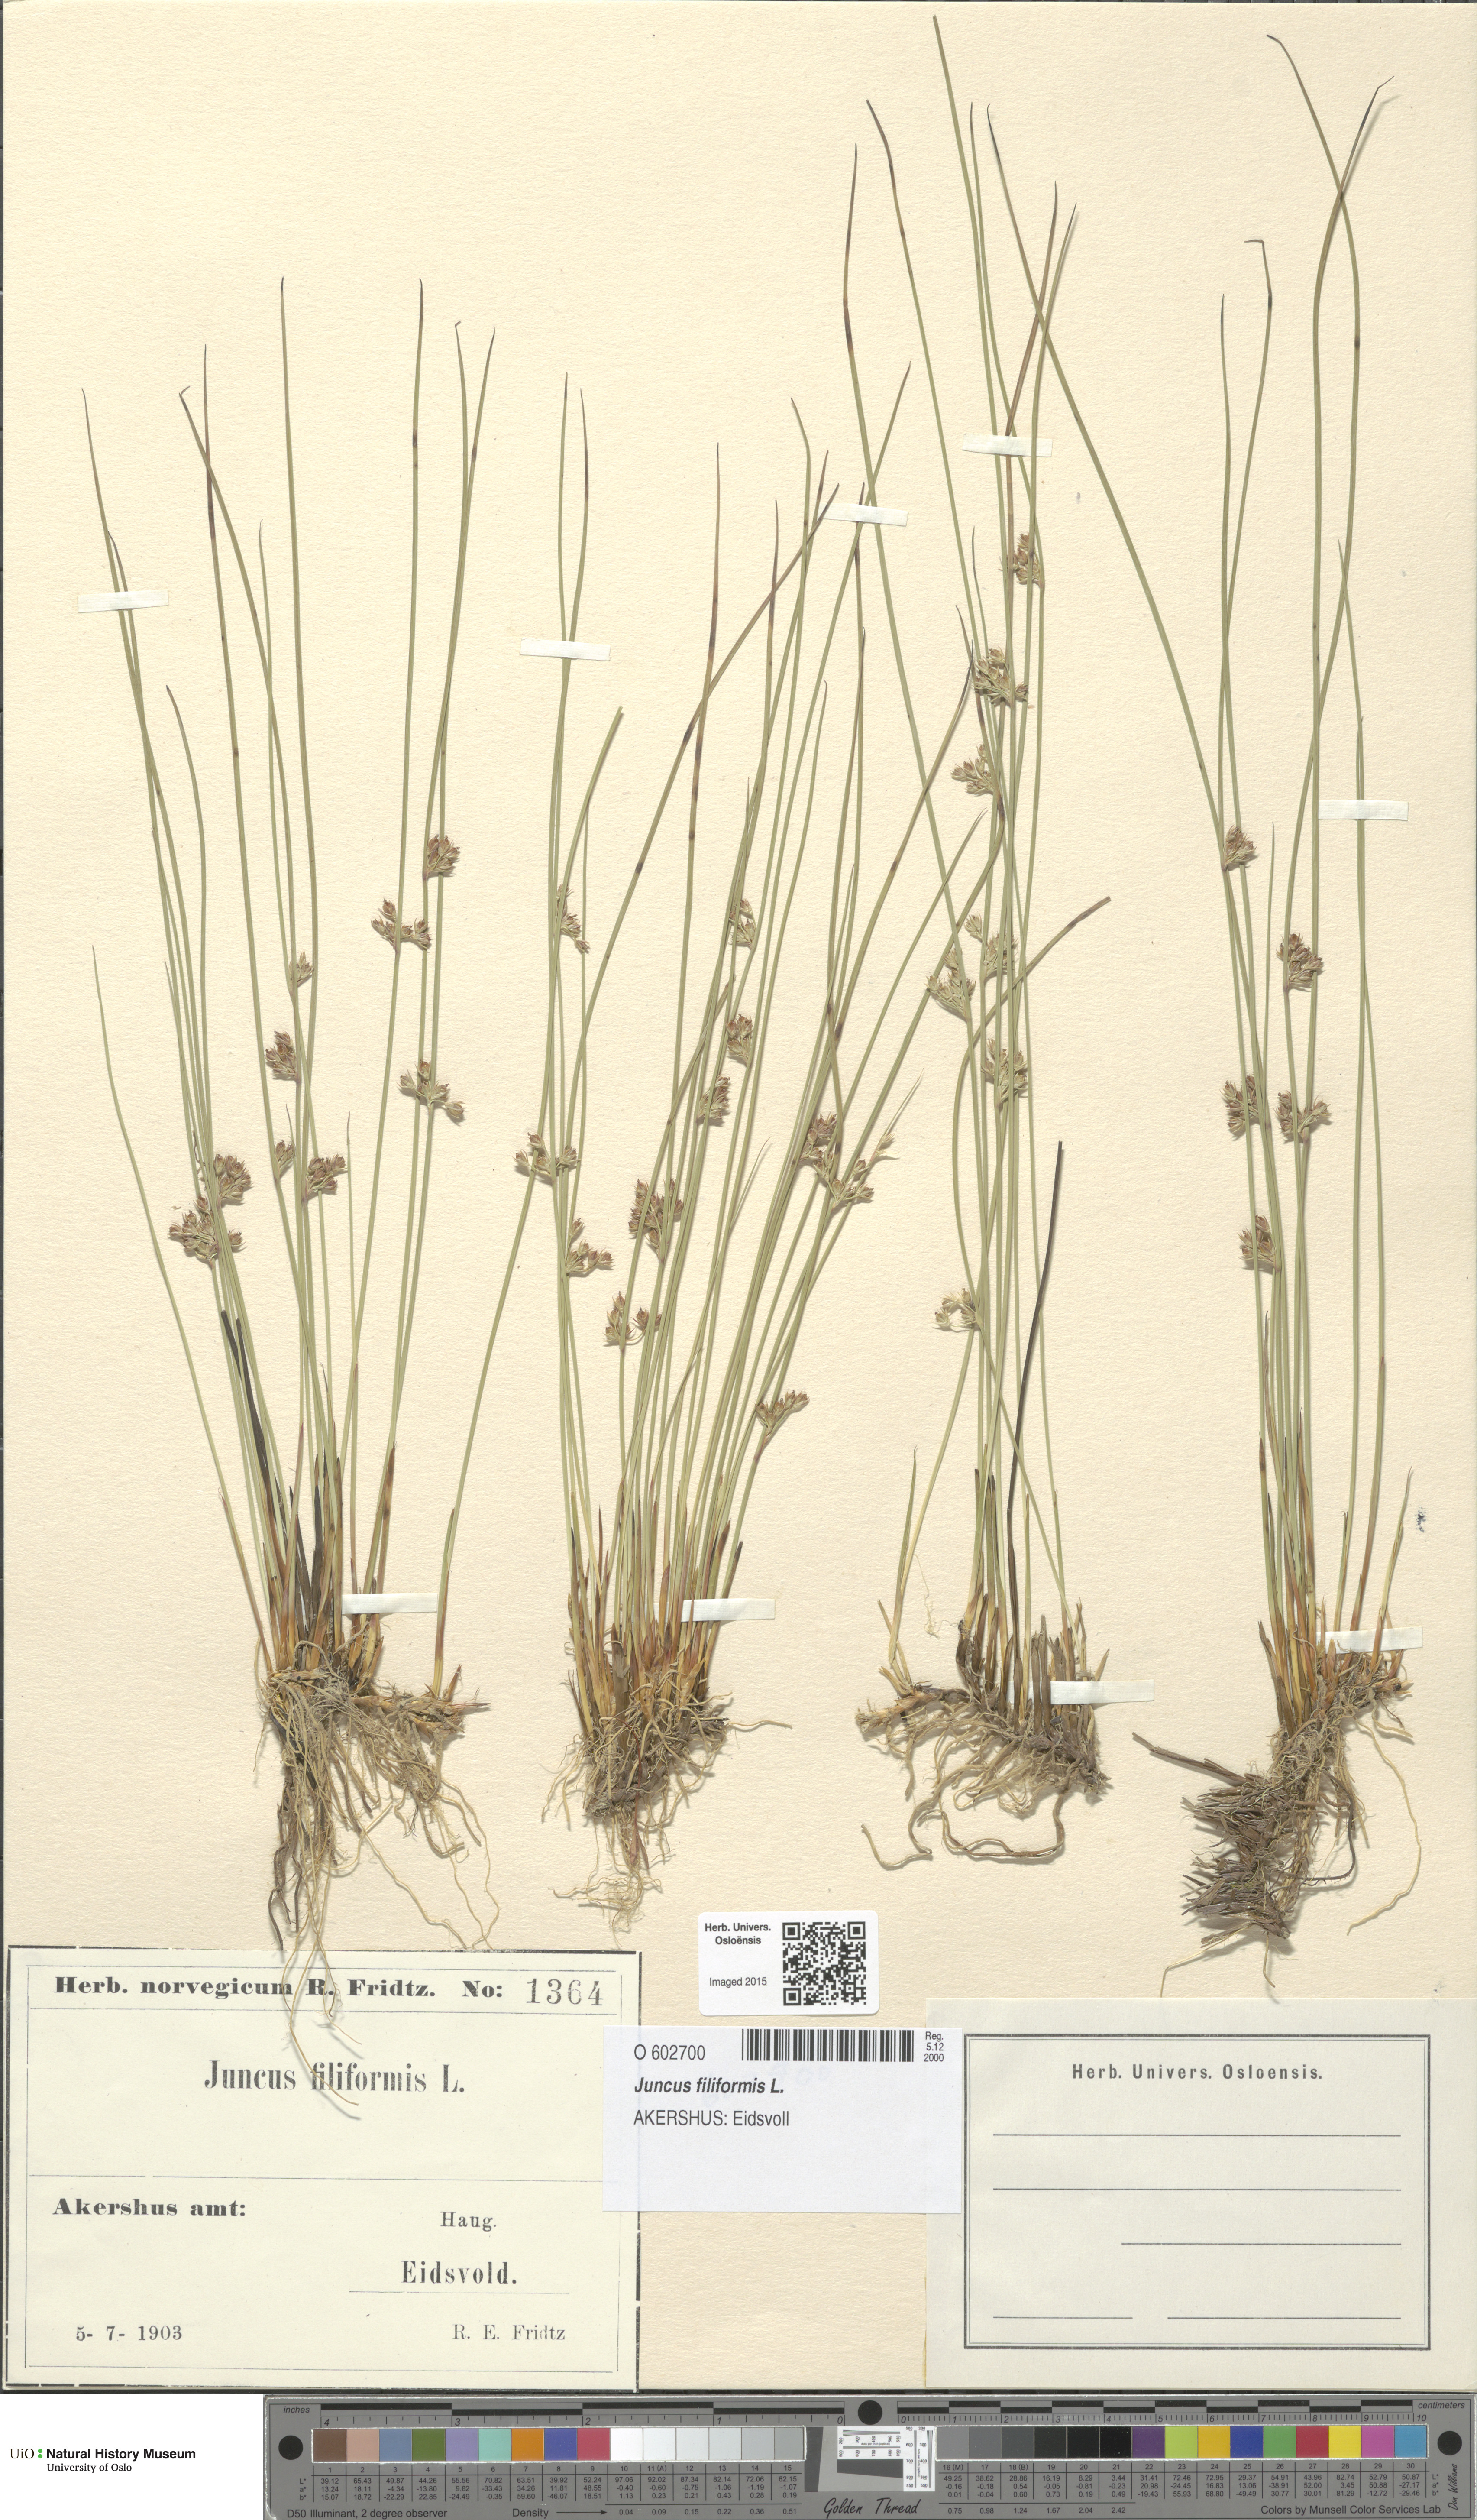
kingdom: Plantae
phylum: Tracheophyta
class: Liliopsida
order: Poales
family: Juncaceae
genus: Juncus
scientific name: Juncus filiformis
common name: Thread rush
